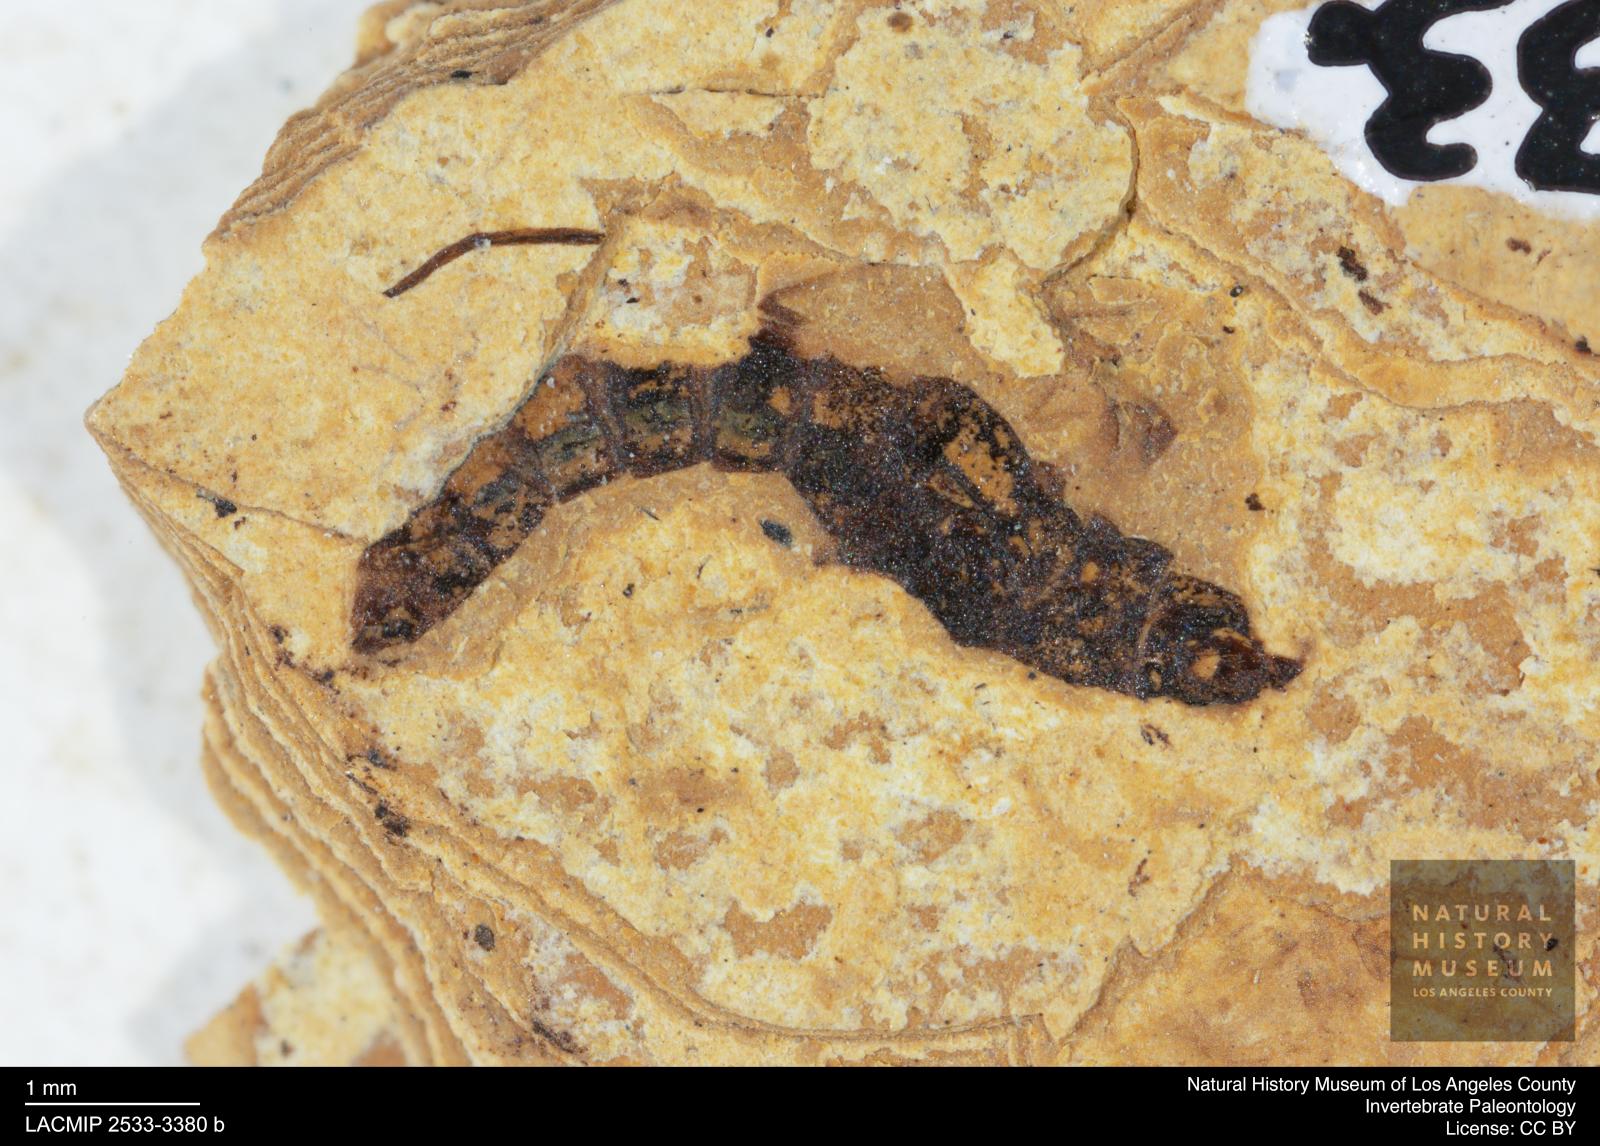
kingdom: Animalia
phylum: Arthropoda
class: Insecta
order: Coleoptera
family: Staphylinidae
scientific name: Staphylinidae
